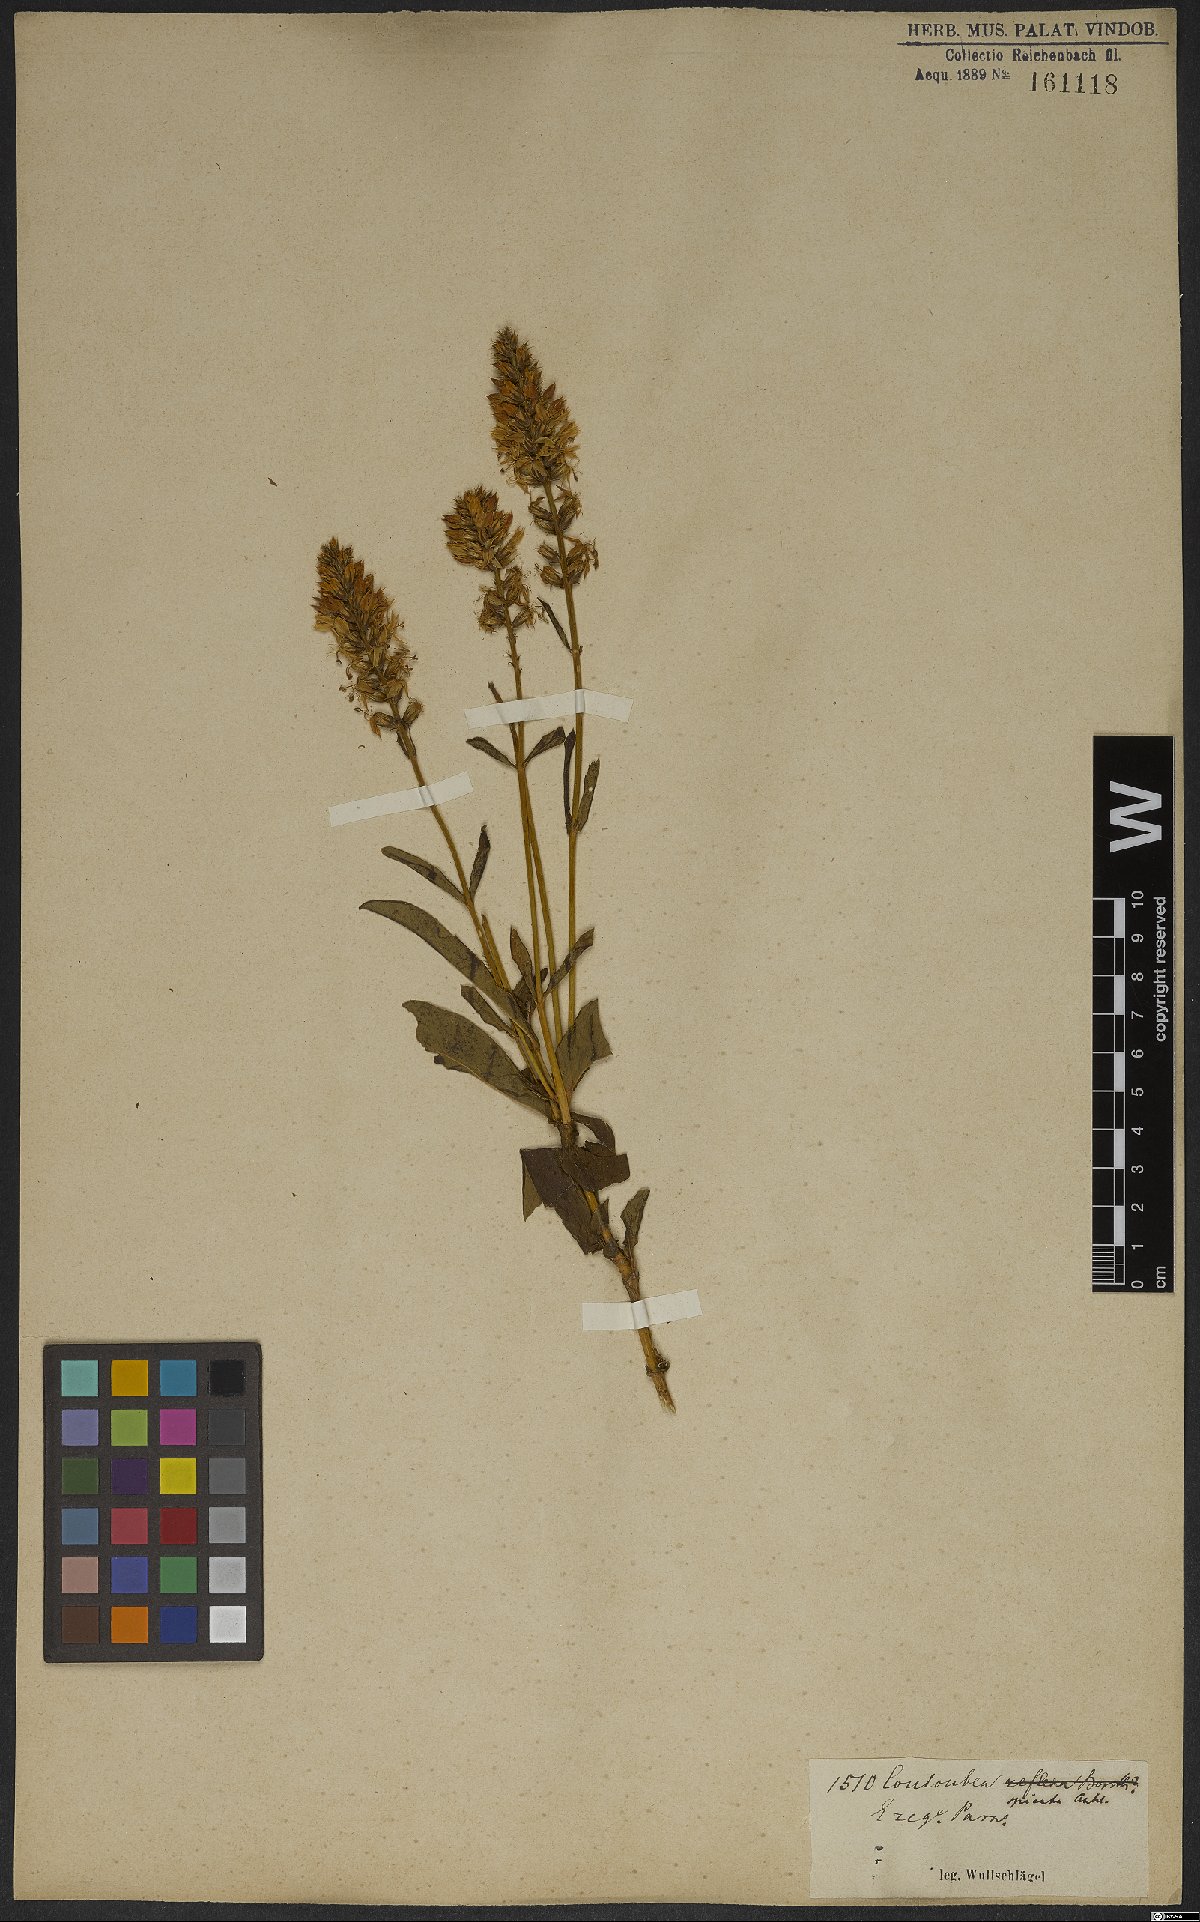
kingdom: Plantae
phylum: Tracheophyta
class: Magnoliopsida
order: Gentianales
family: Gentianaceae
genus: Coutoubea
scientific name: Coutoubea spicata
